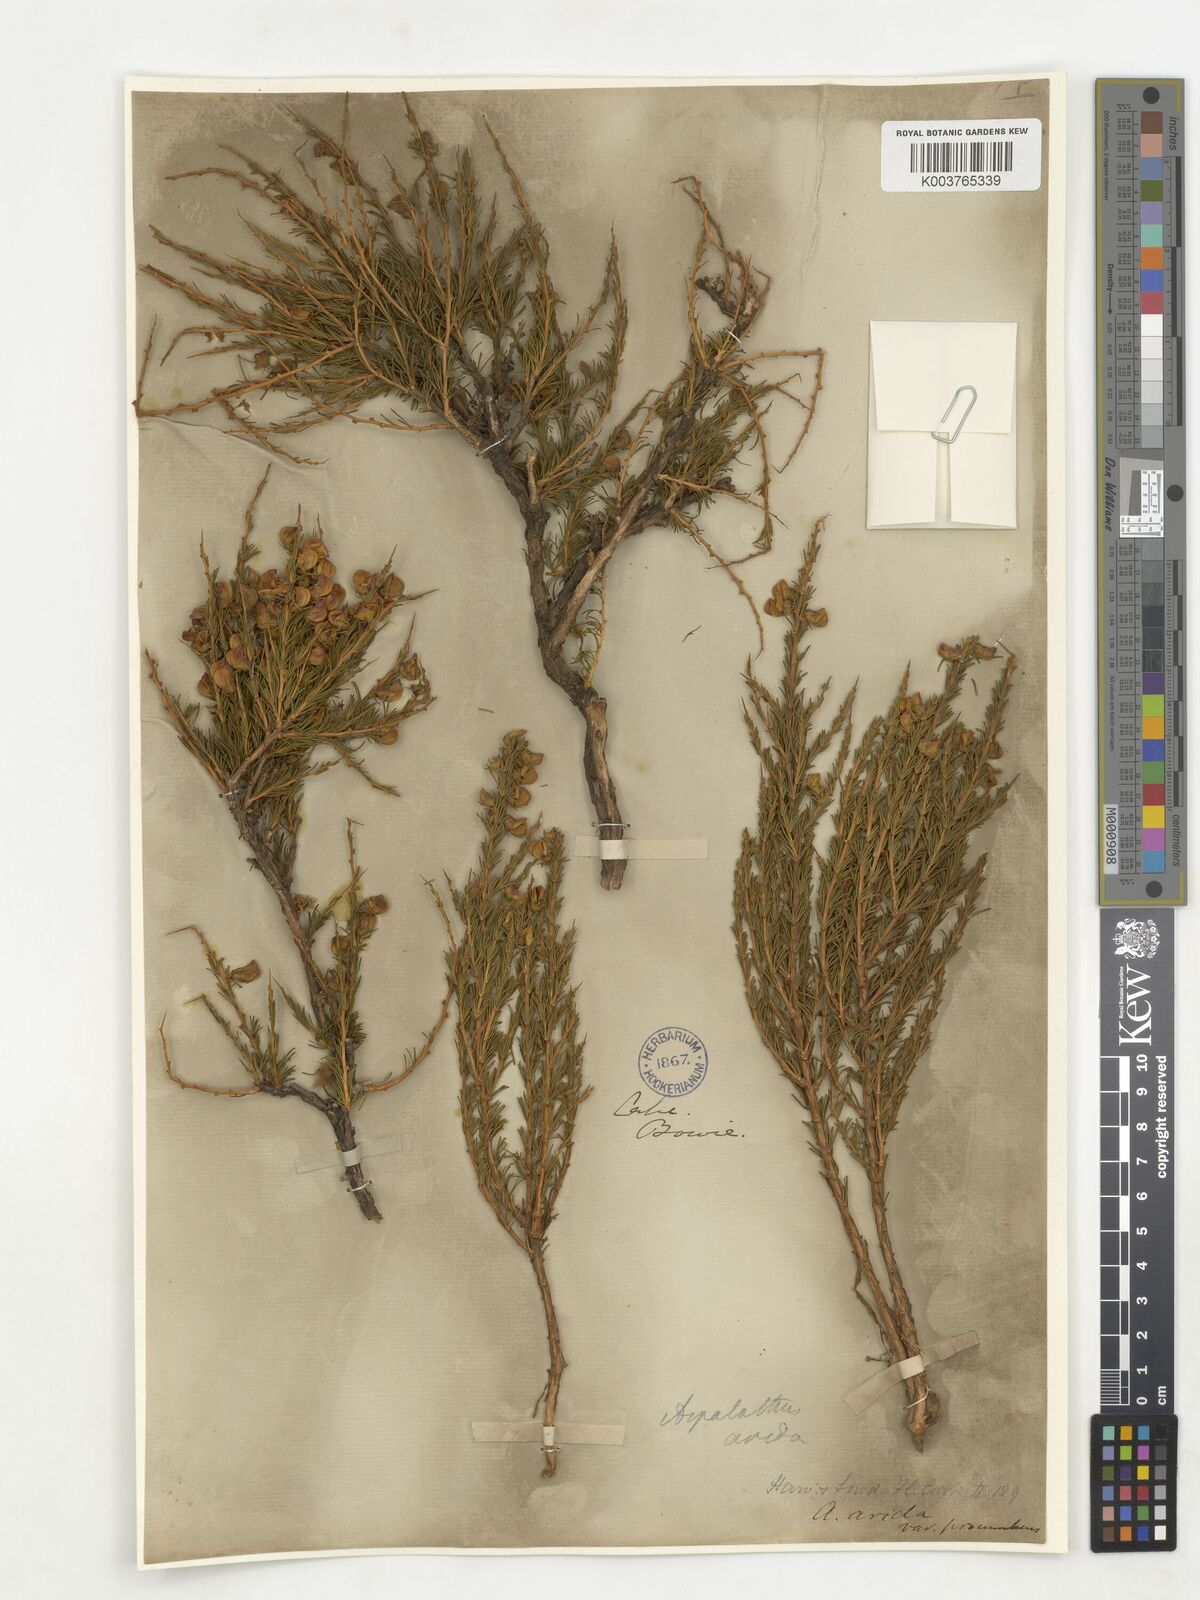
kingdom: Plantae
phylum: Tracheophyta
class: Magnoliopsida
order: Fabales
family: Fabaceae
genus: Aspalathus
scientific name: Aspalathus arida
